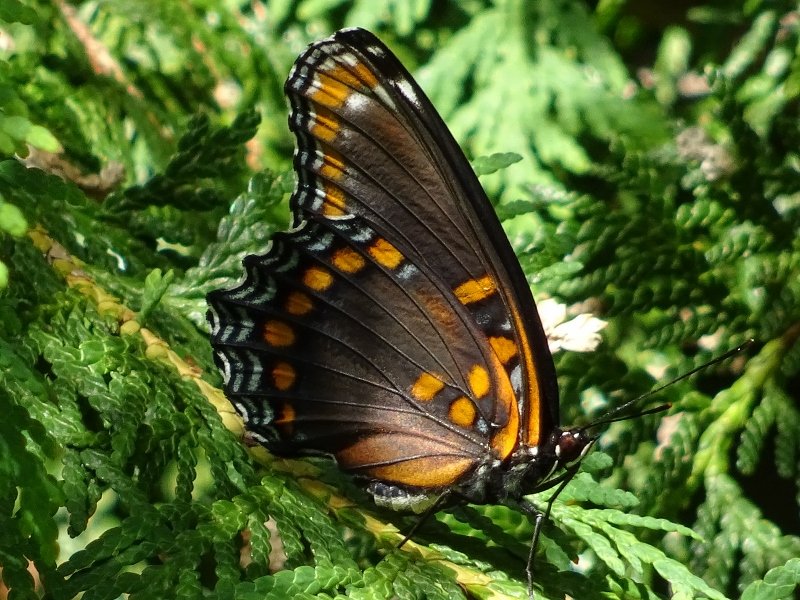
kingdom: Animalia
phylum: Arthropoda
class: Insecta
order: Lepidoptera
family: Nymphalidae
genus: Limenitis
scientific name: Limenitis astyanax
